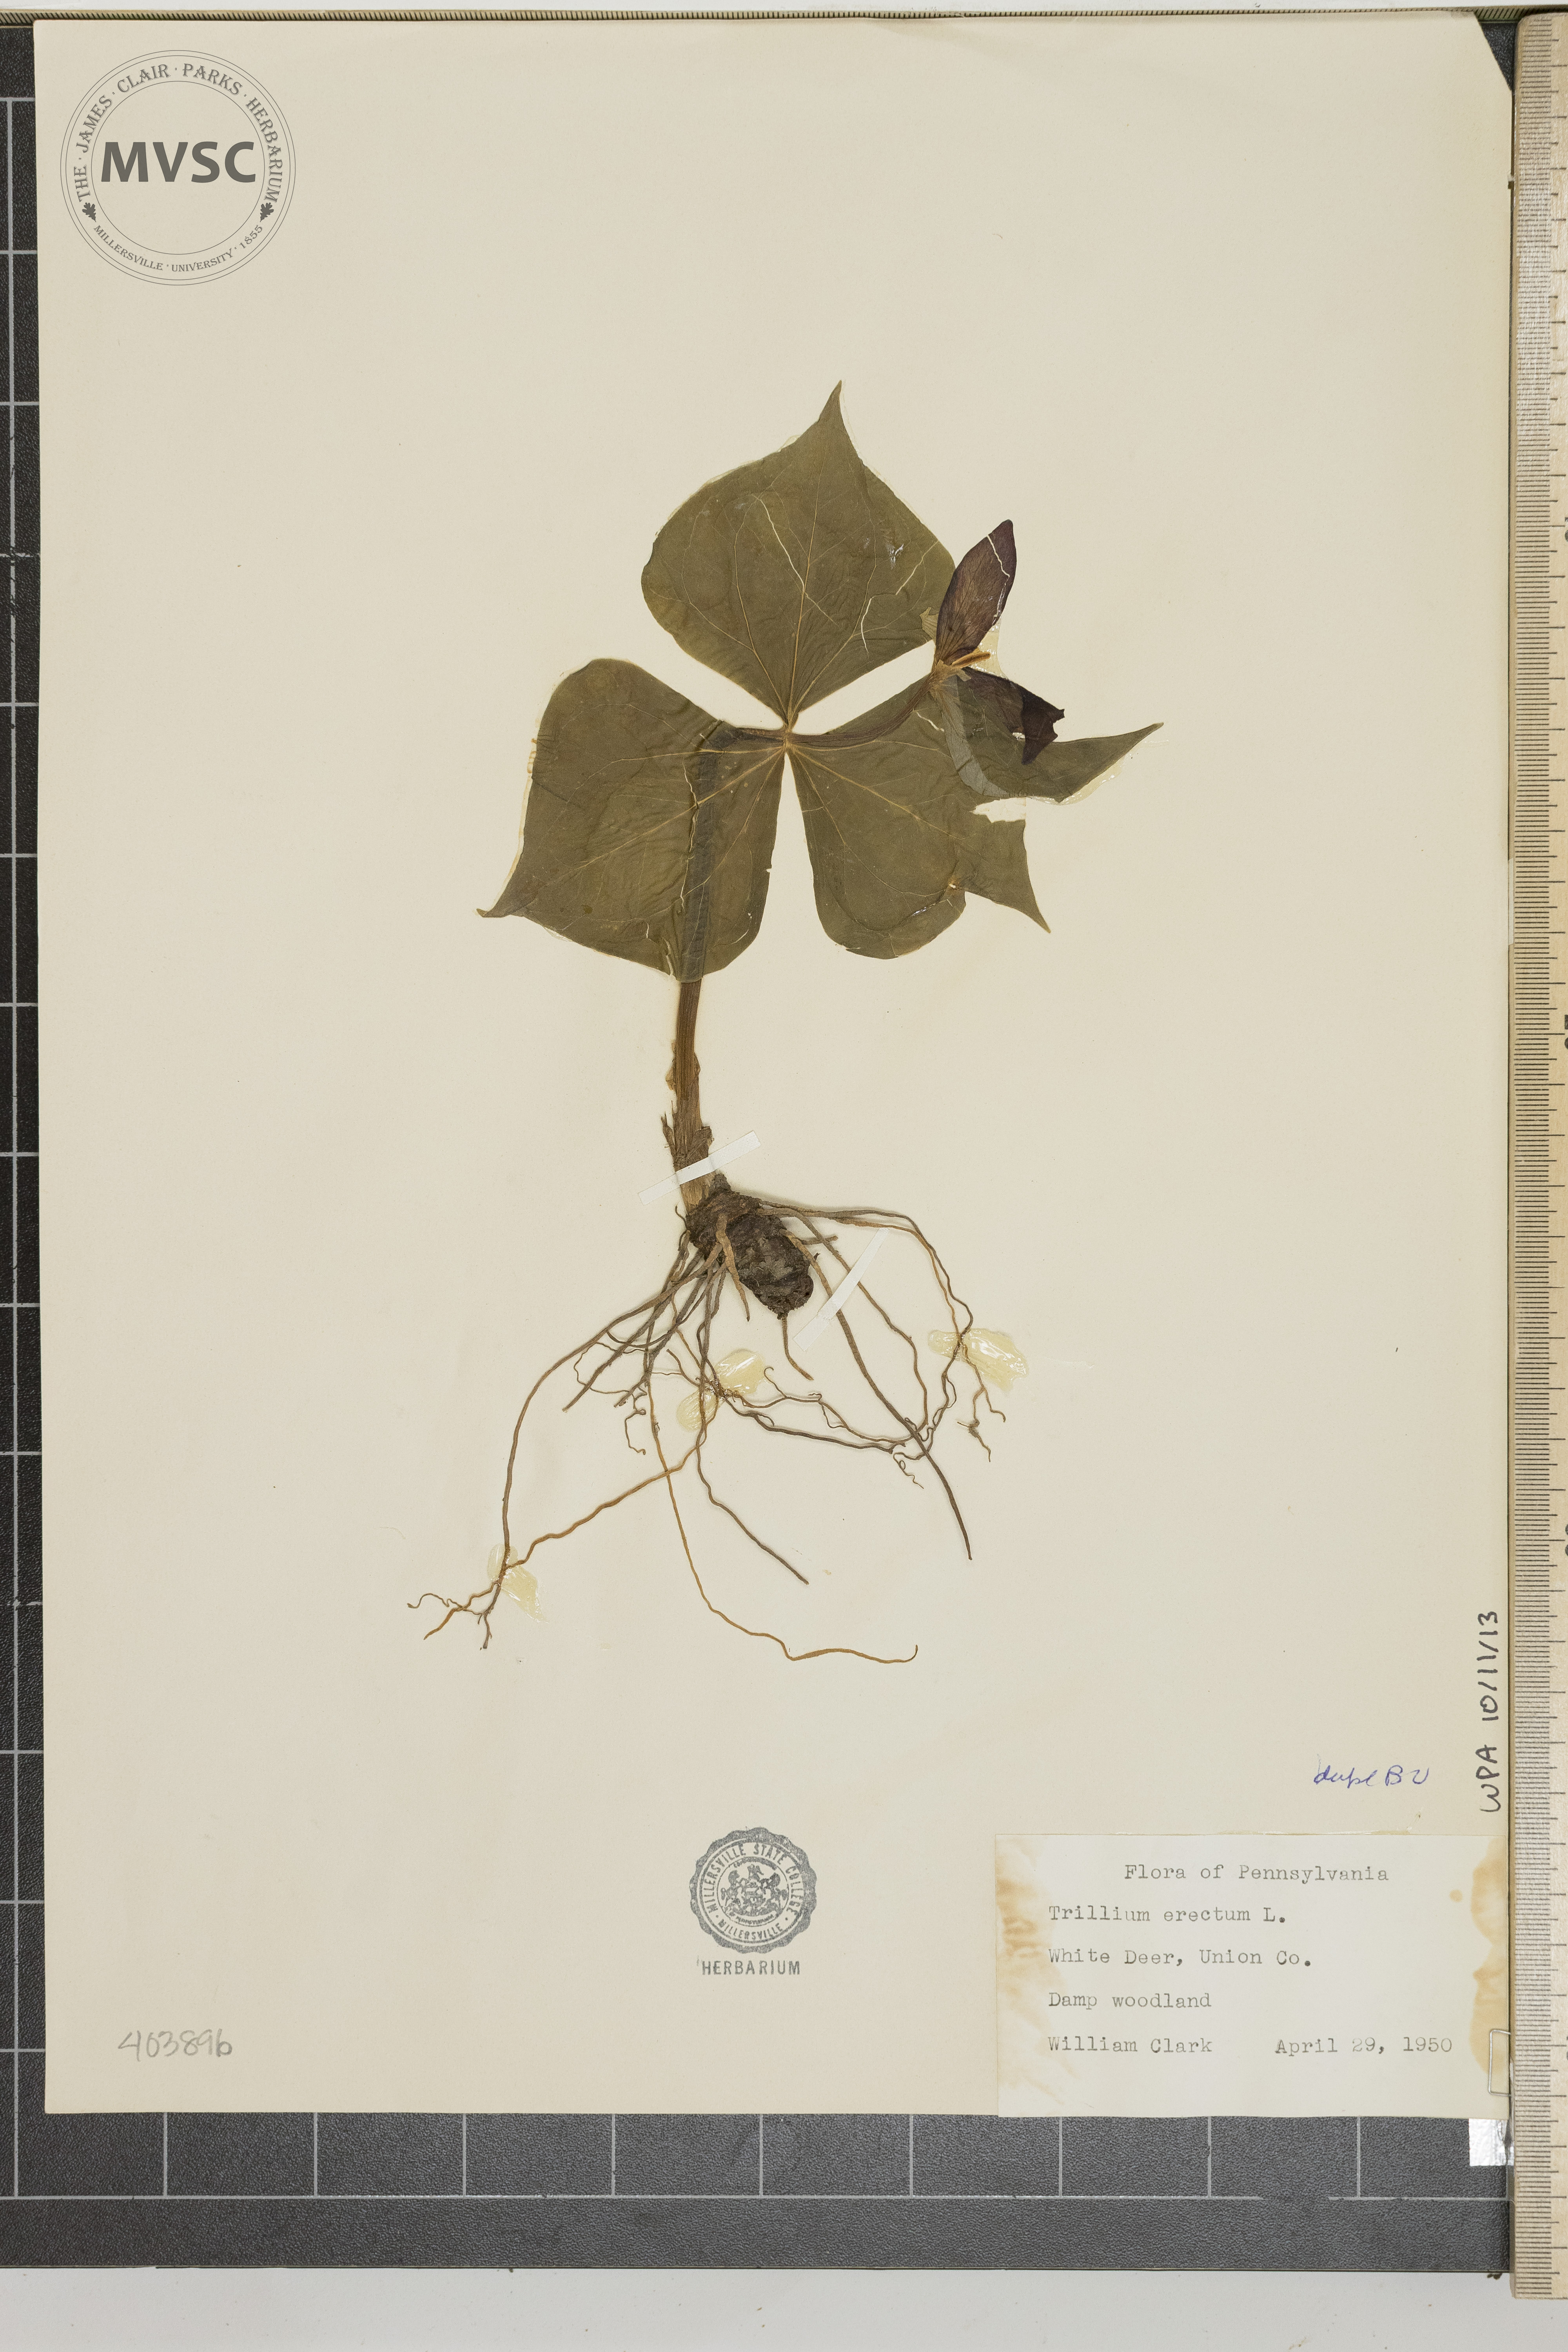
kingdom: Plantae
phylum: Tracheophyta
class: Liliopsida
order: Liliales
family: Melanthiaceae
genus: Trillium
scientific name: Trillium erectum
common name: Purple trillium
